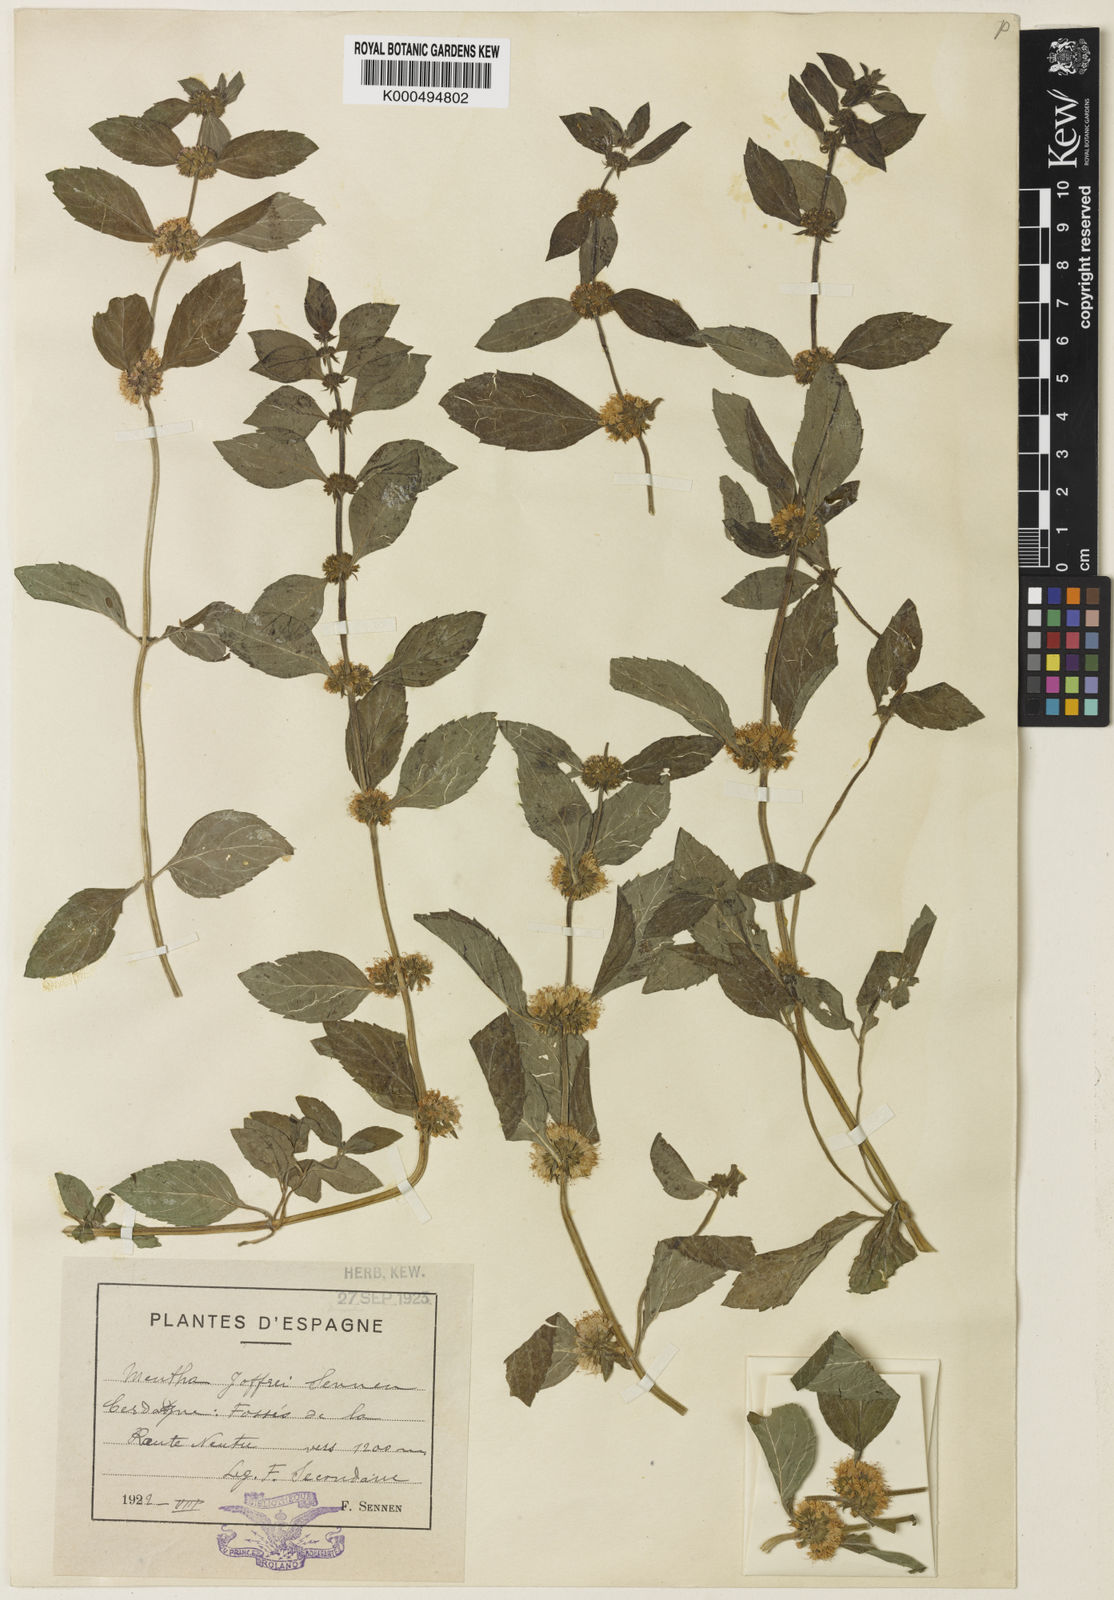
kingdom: Plantae
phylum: Tracheophyta
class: Magnoliopsida
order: Lamiales
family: Lamiaceae
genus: Mentha
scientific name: Mentha verticillata
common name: Mint
